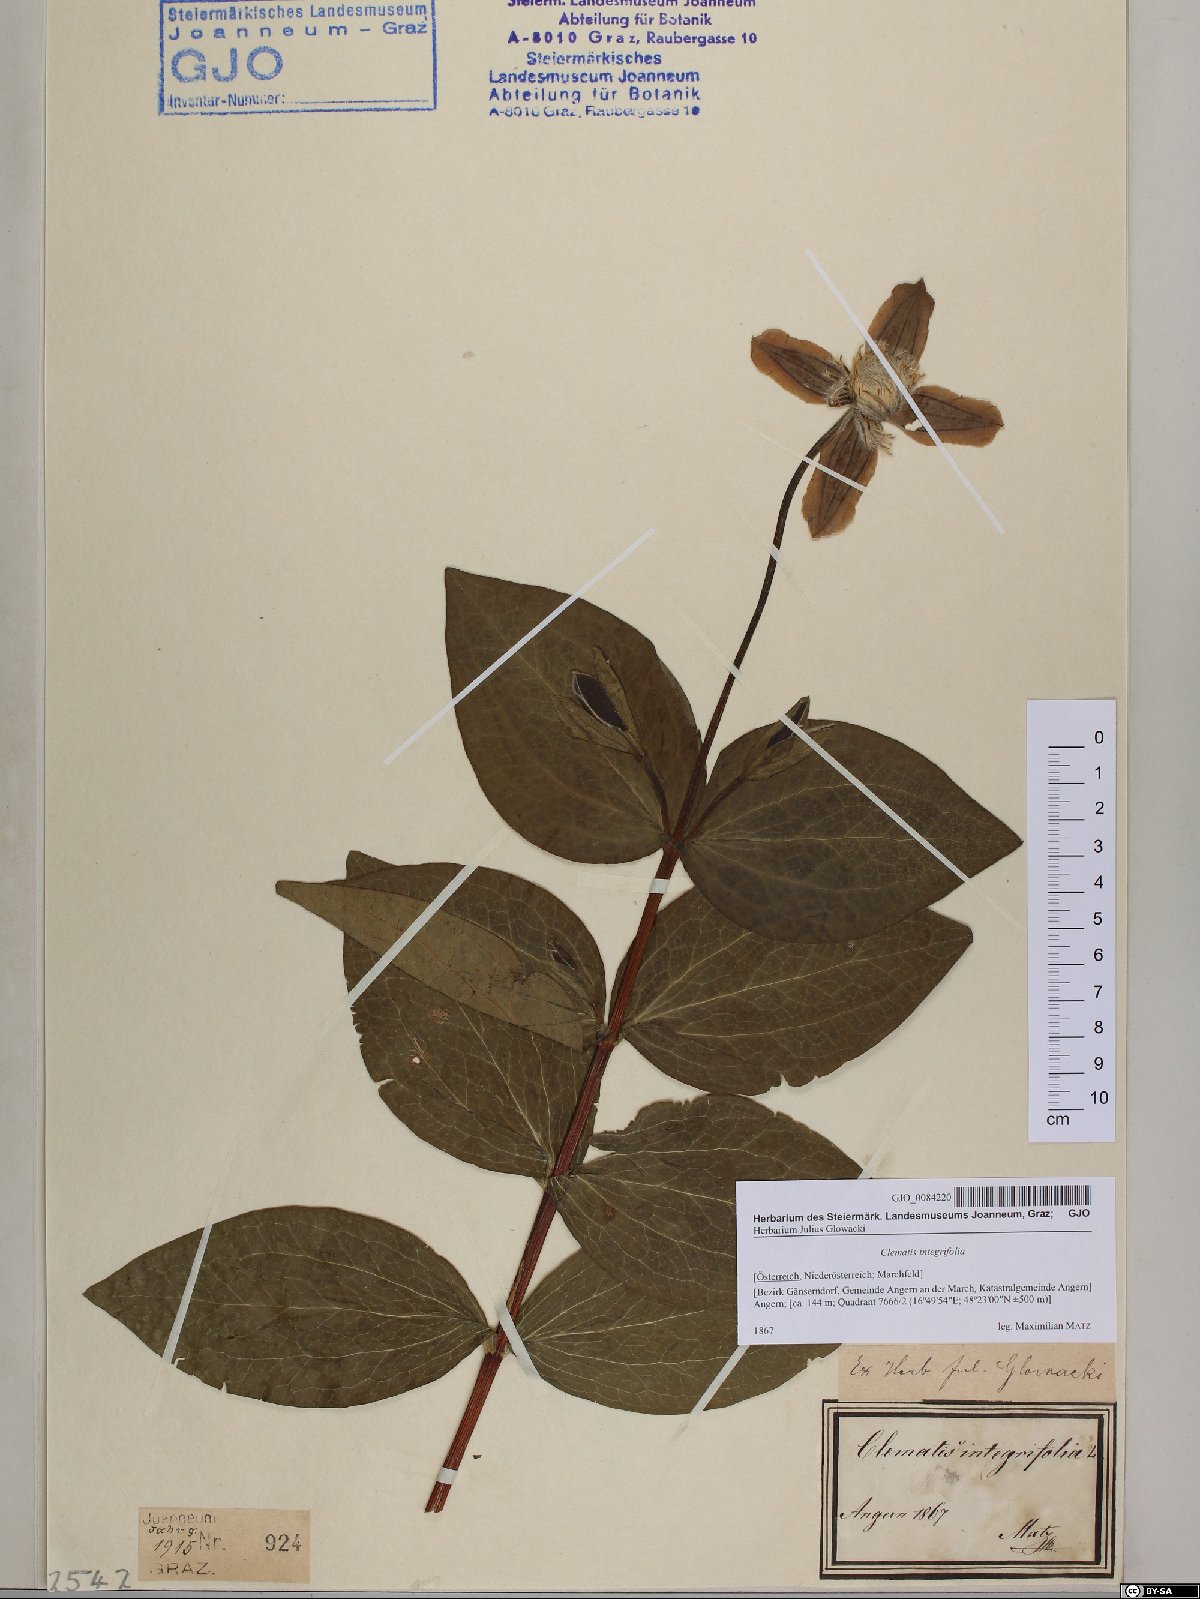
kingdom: Plantae
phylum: Tracheophyta
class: Magnoliopsida
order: Ranunculales
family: Ranunculaceae
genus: Clematis
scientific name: Clematis integrifolia
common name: Solitary clematis
